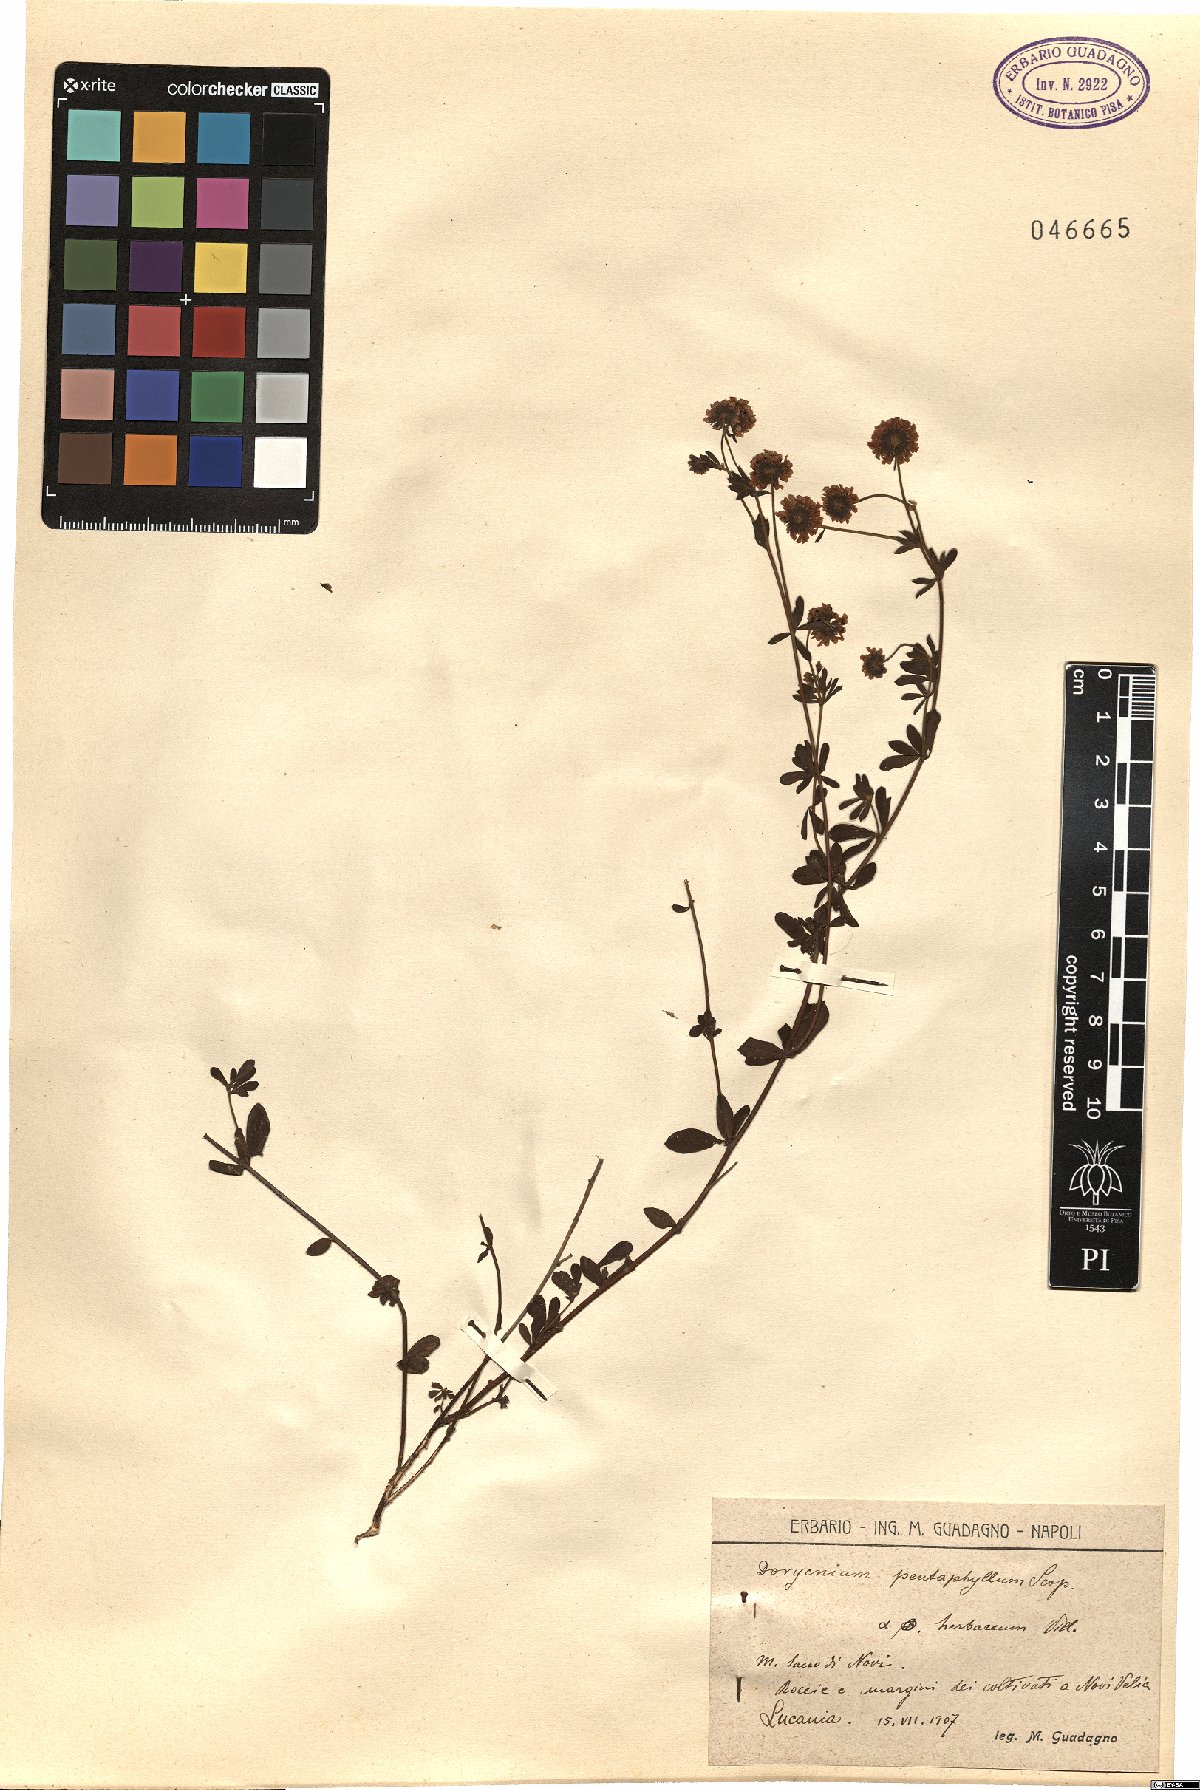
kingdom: Plantae
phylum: Tracheophyta
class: Magnoliopsida
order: Fabales
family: Fabaceae
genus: Lotus
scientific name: Lotus herbaceus
